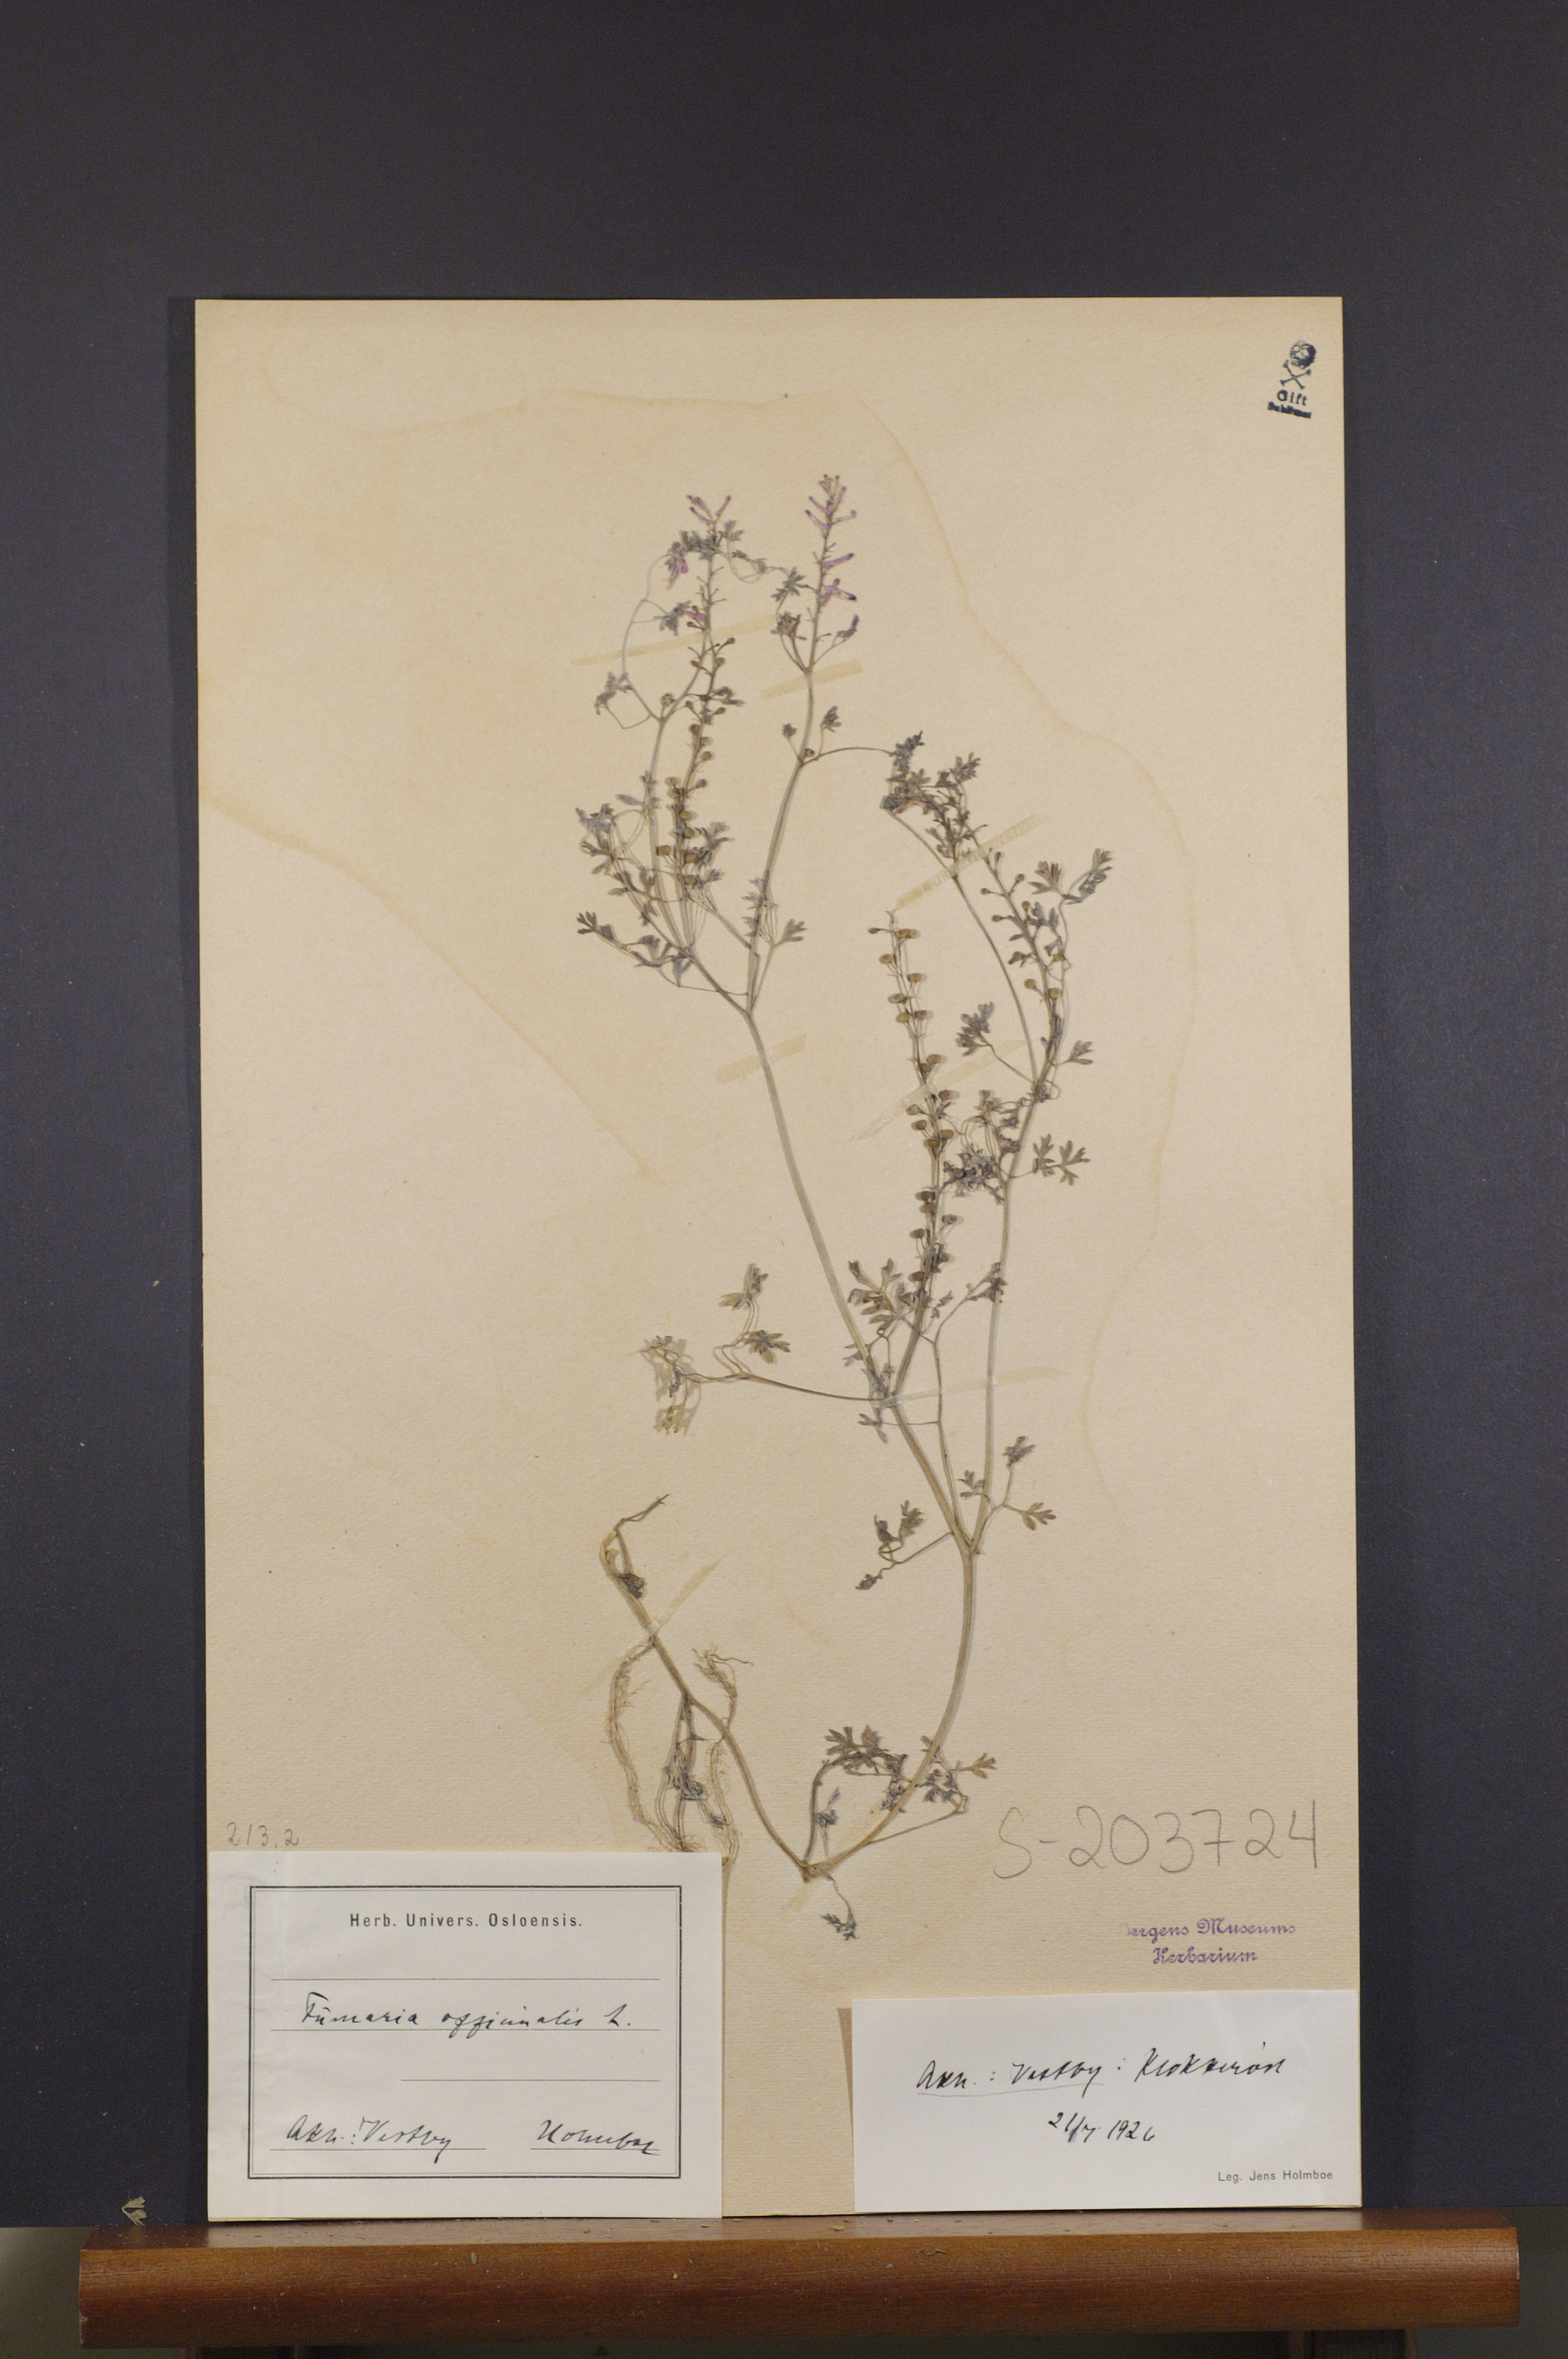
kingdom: Plantae
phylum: Tracheophyta
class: Magnoliopsida
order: Ranunculales
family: Papaveraceae
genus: Fumaria
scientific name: Fumaria officinalis
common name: Common fumitory
